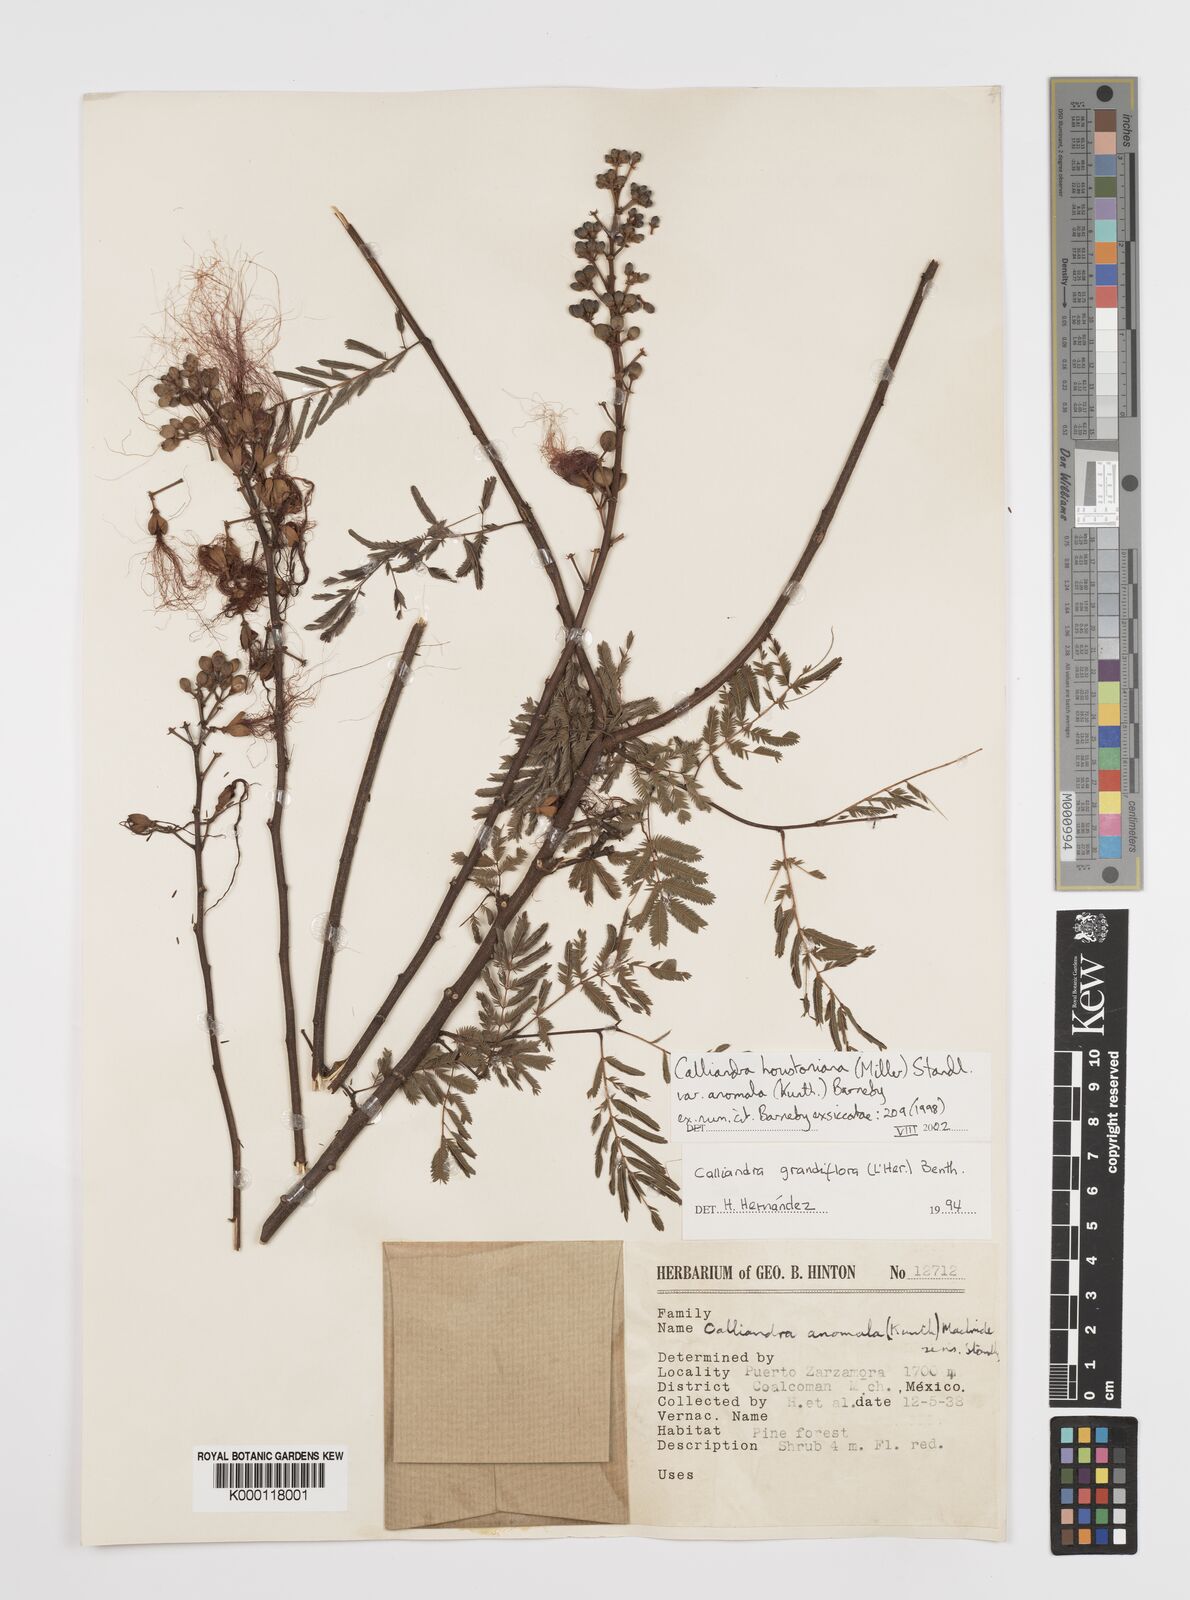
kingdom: Plantae
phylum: Tracheophyta
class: Magnoliopsida
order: Fabales
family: Fabaceae
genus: Calliandra
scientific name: Calliandra houstoniana
